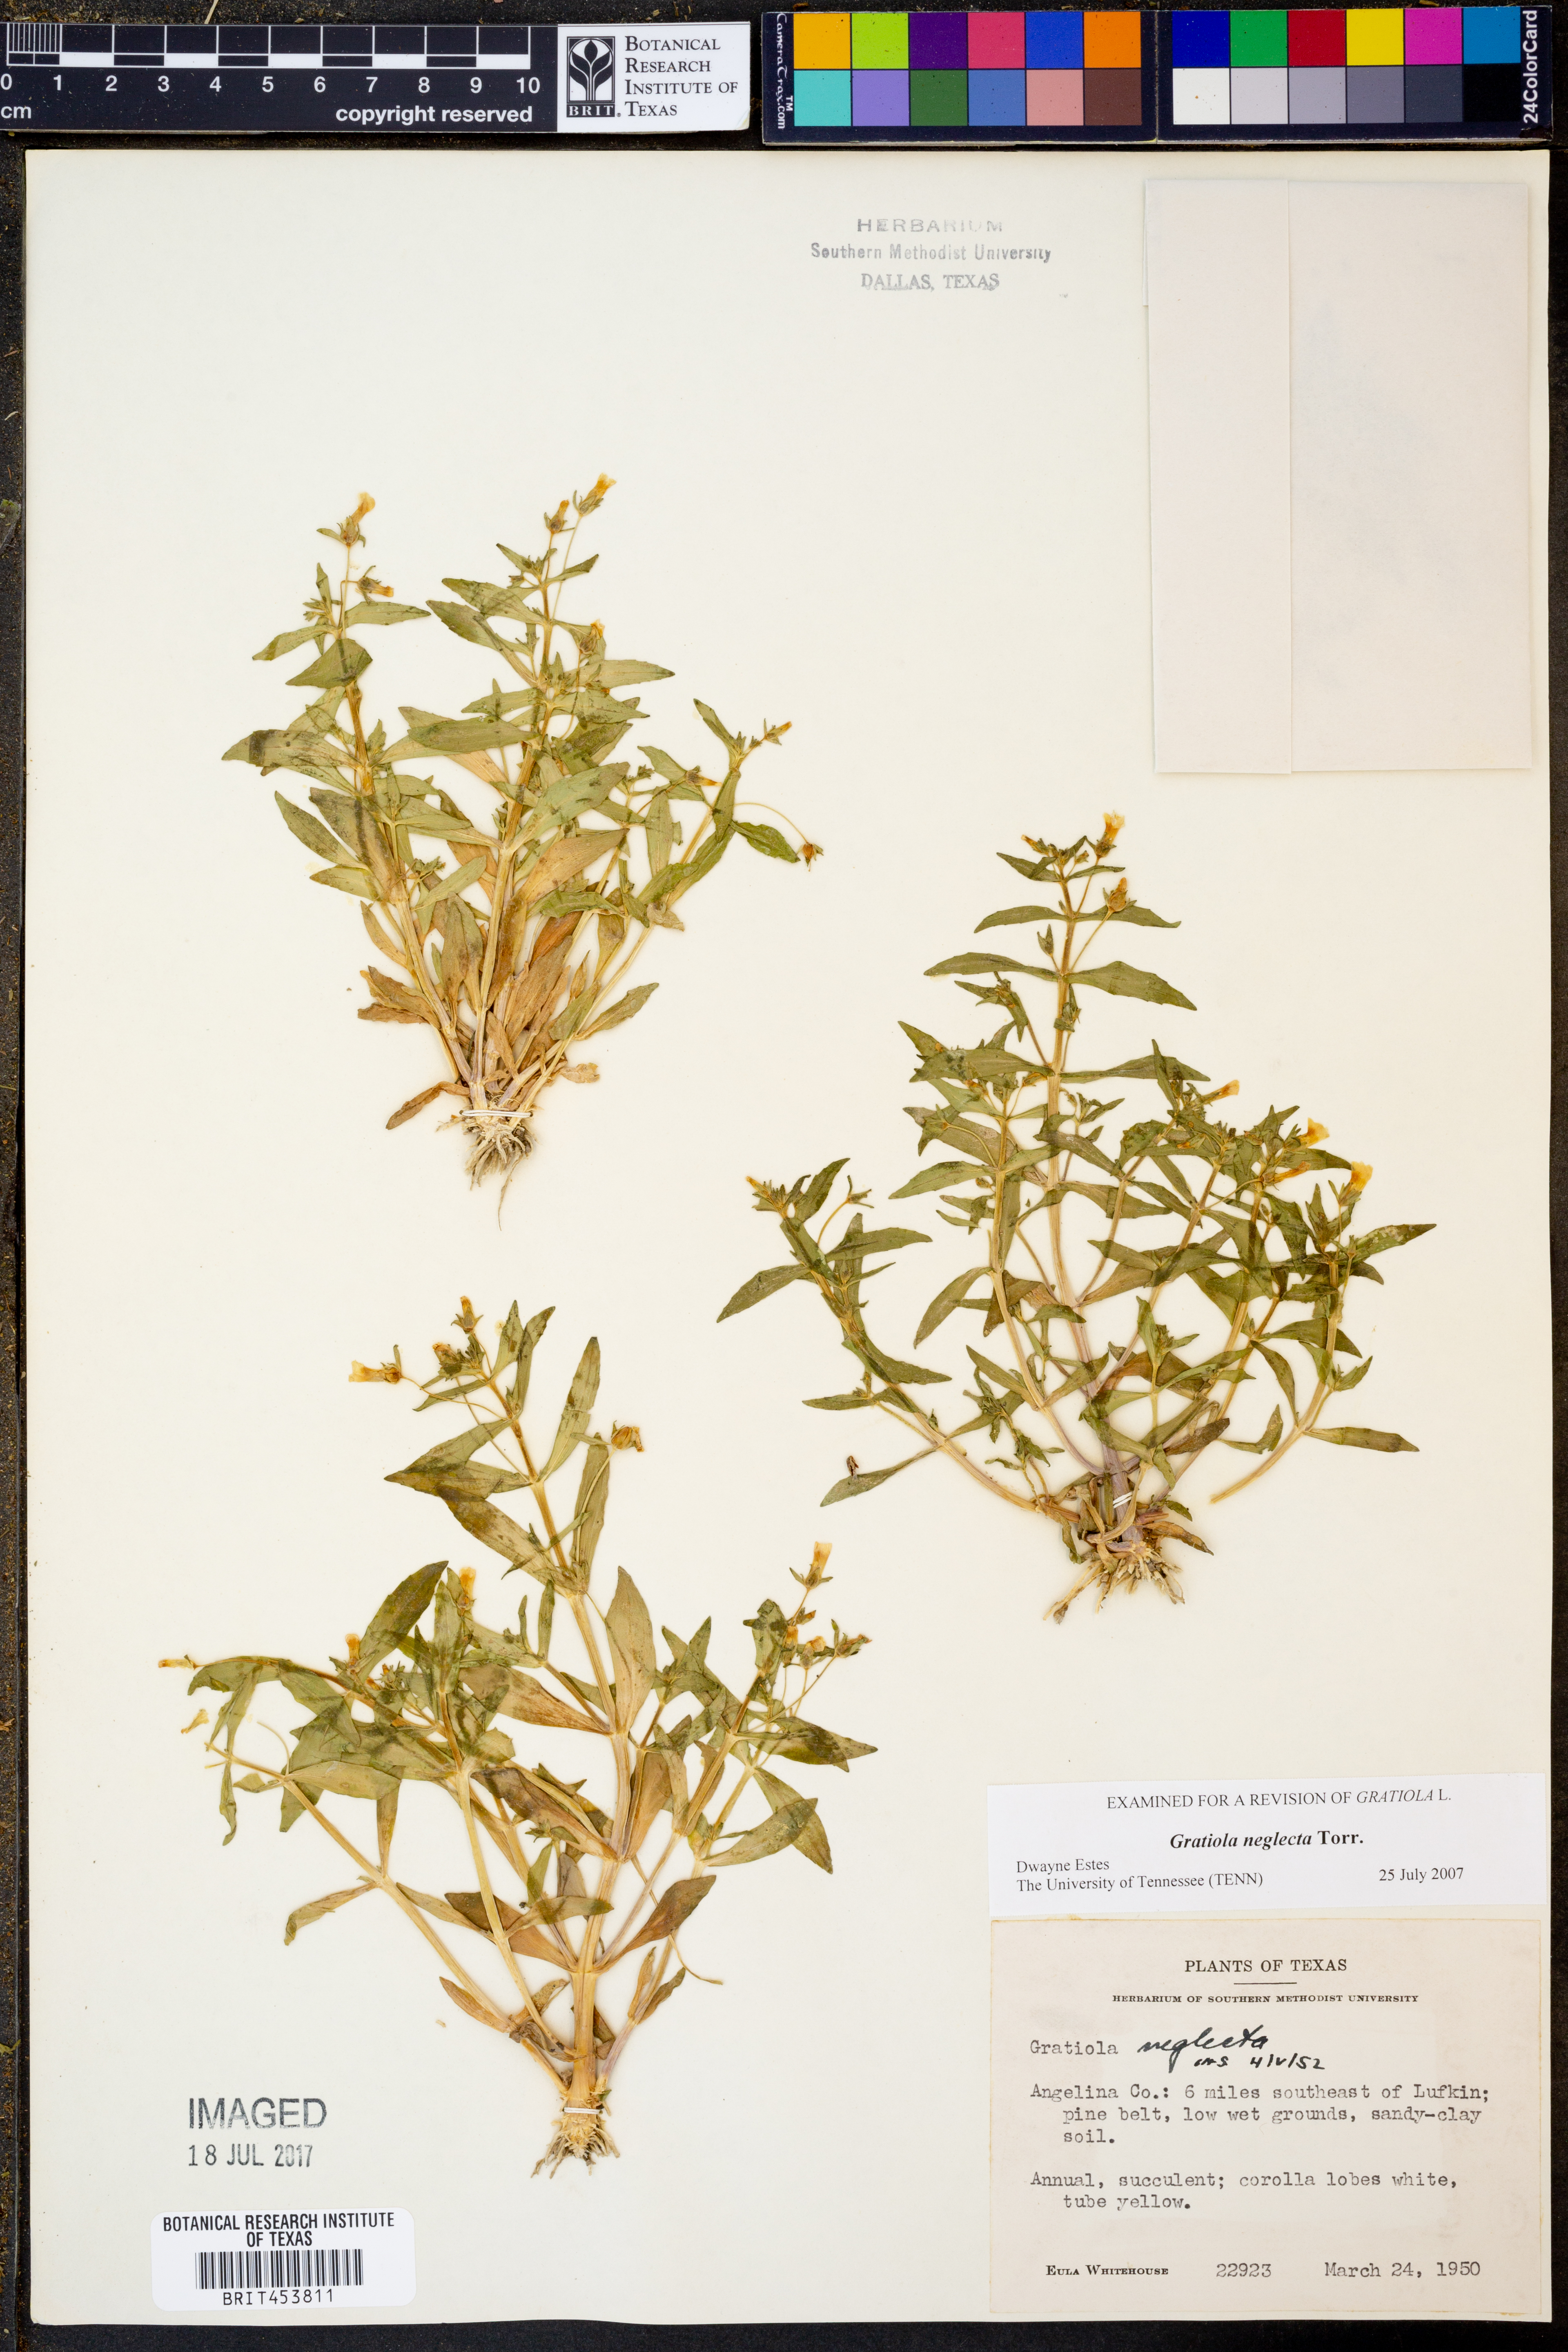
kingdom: Plantae
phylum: Tracheophyta
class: Magnoliopsida
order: Lamiales
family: Plantaginaceae
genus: Gratiola
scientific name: Gratiola neglecta
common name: American hedge-hyssop
